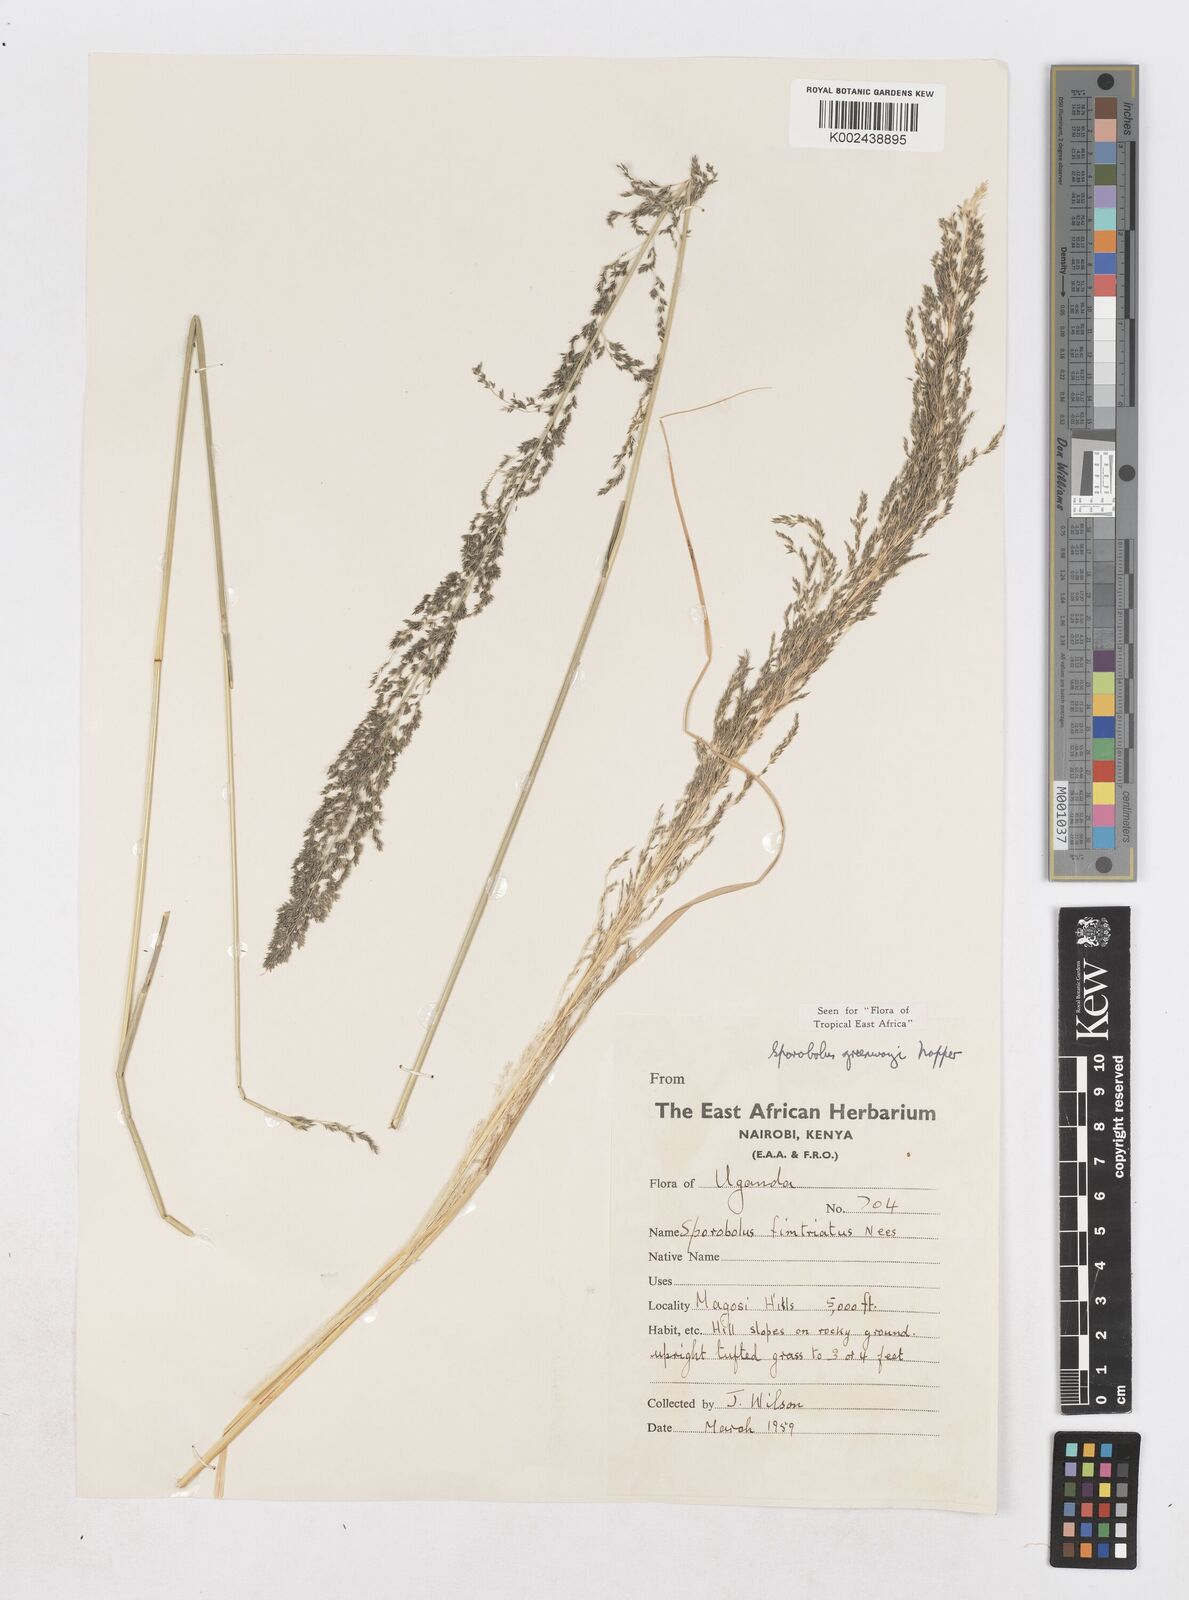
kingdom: Plantae
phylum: Tracheophyta
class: Liliopsida
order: Poales
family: Poaceae
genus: Sporobolus
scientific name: Sporobolus macranthelus
